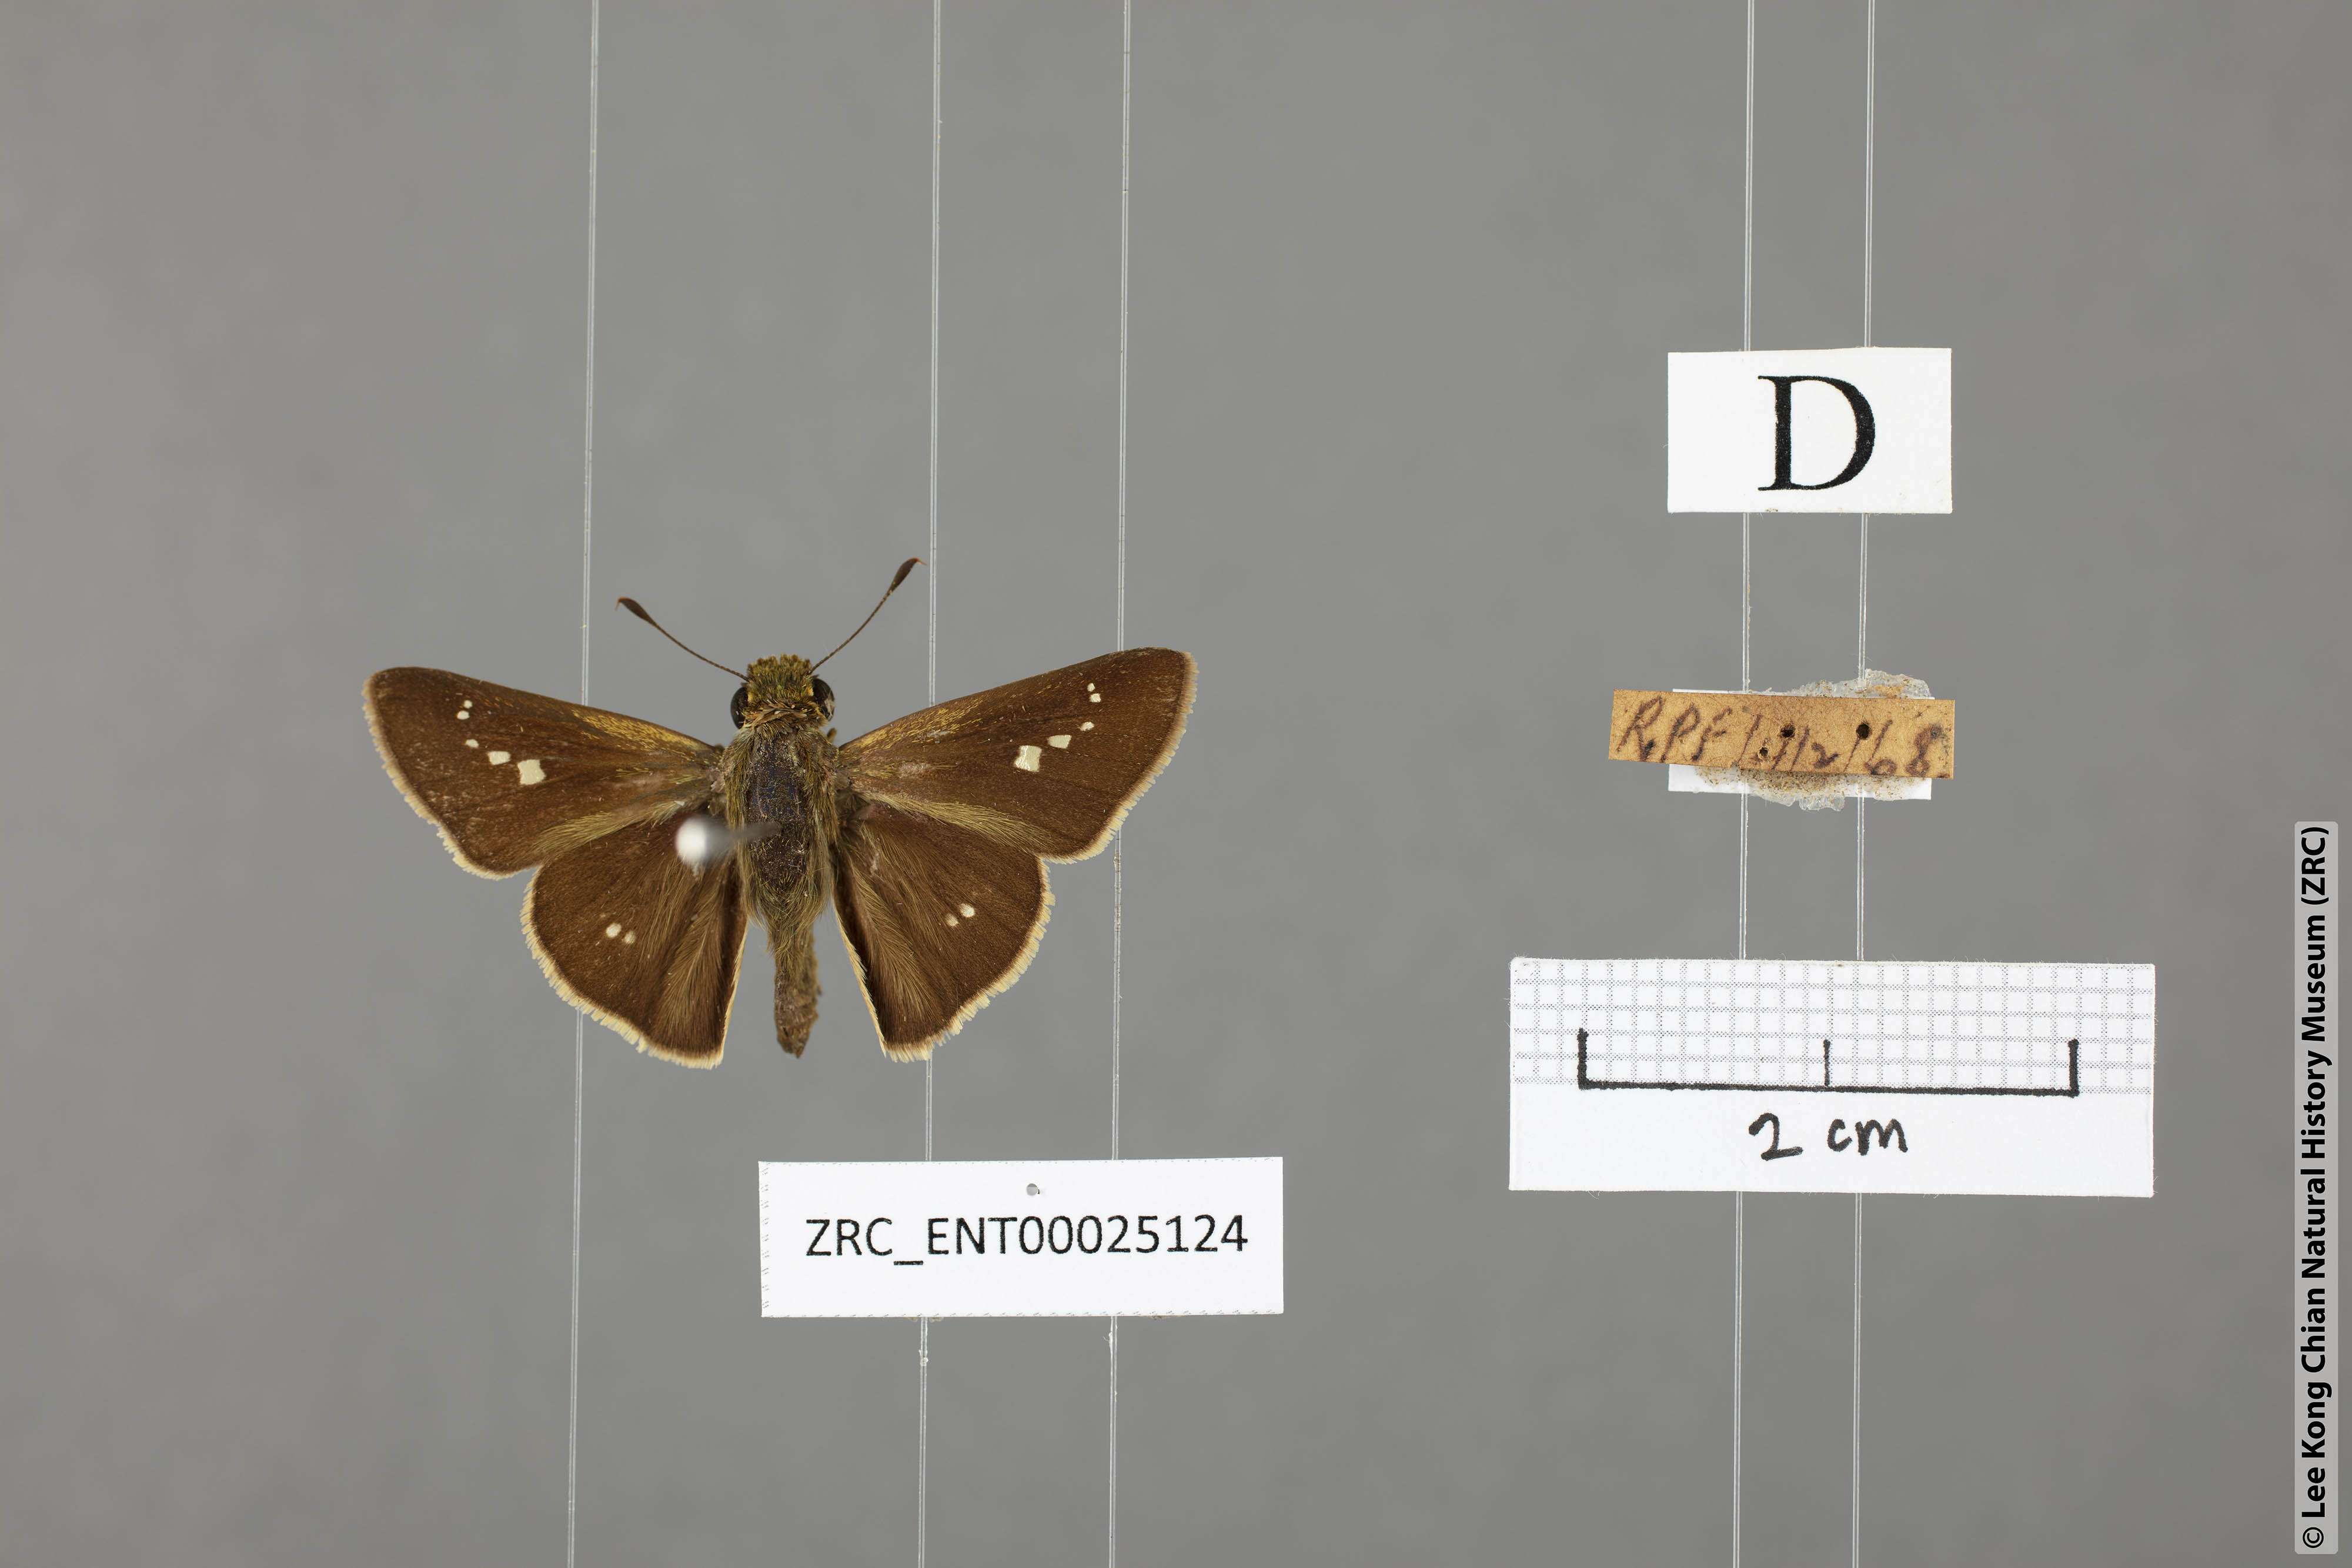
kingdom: Animalia
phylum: Arthropoda
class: Insecta
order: Lepidoptera
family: Hesperiidae
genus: Parnara
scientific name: Parnara naso
